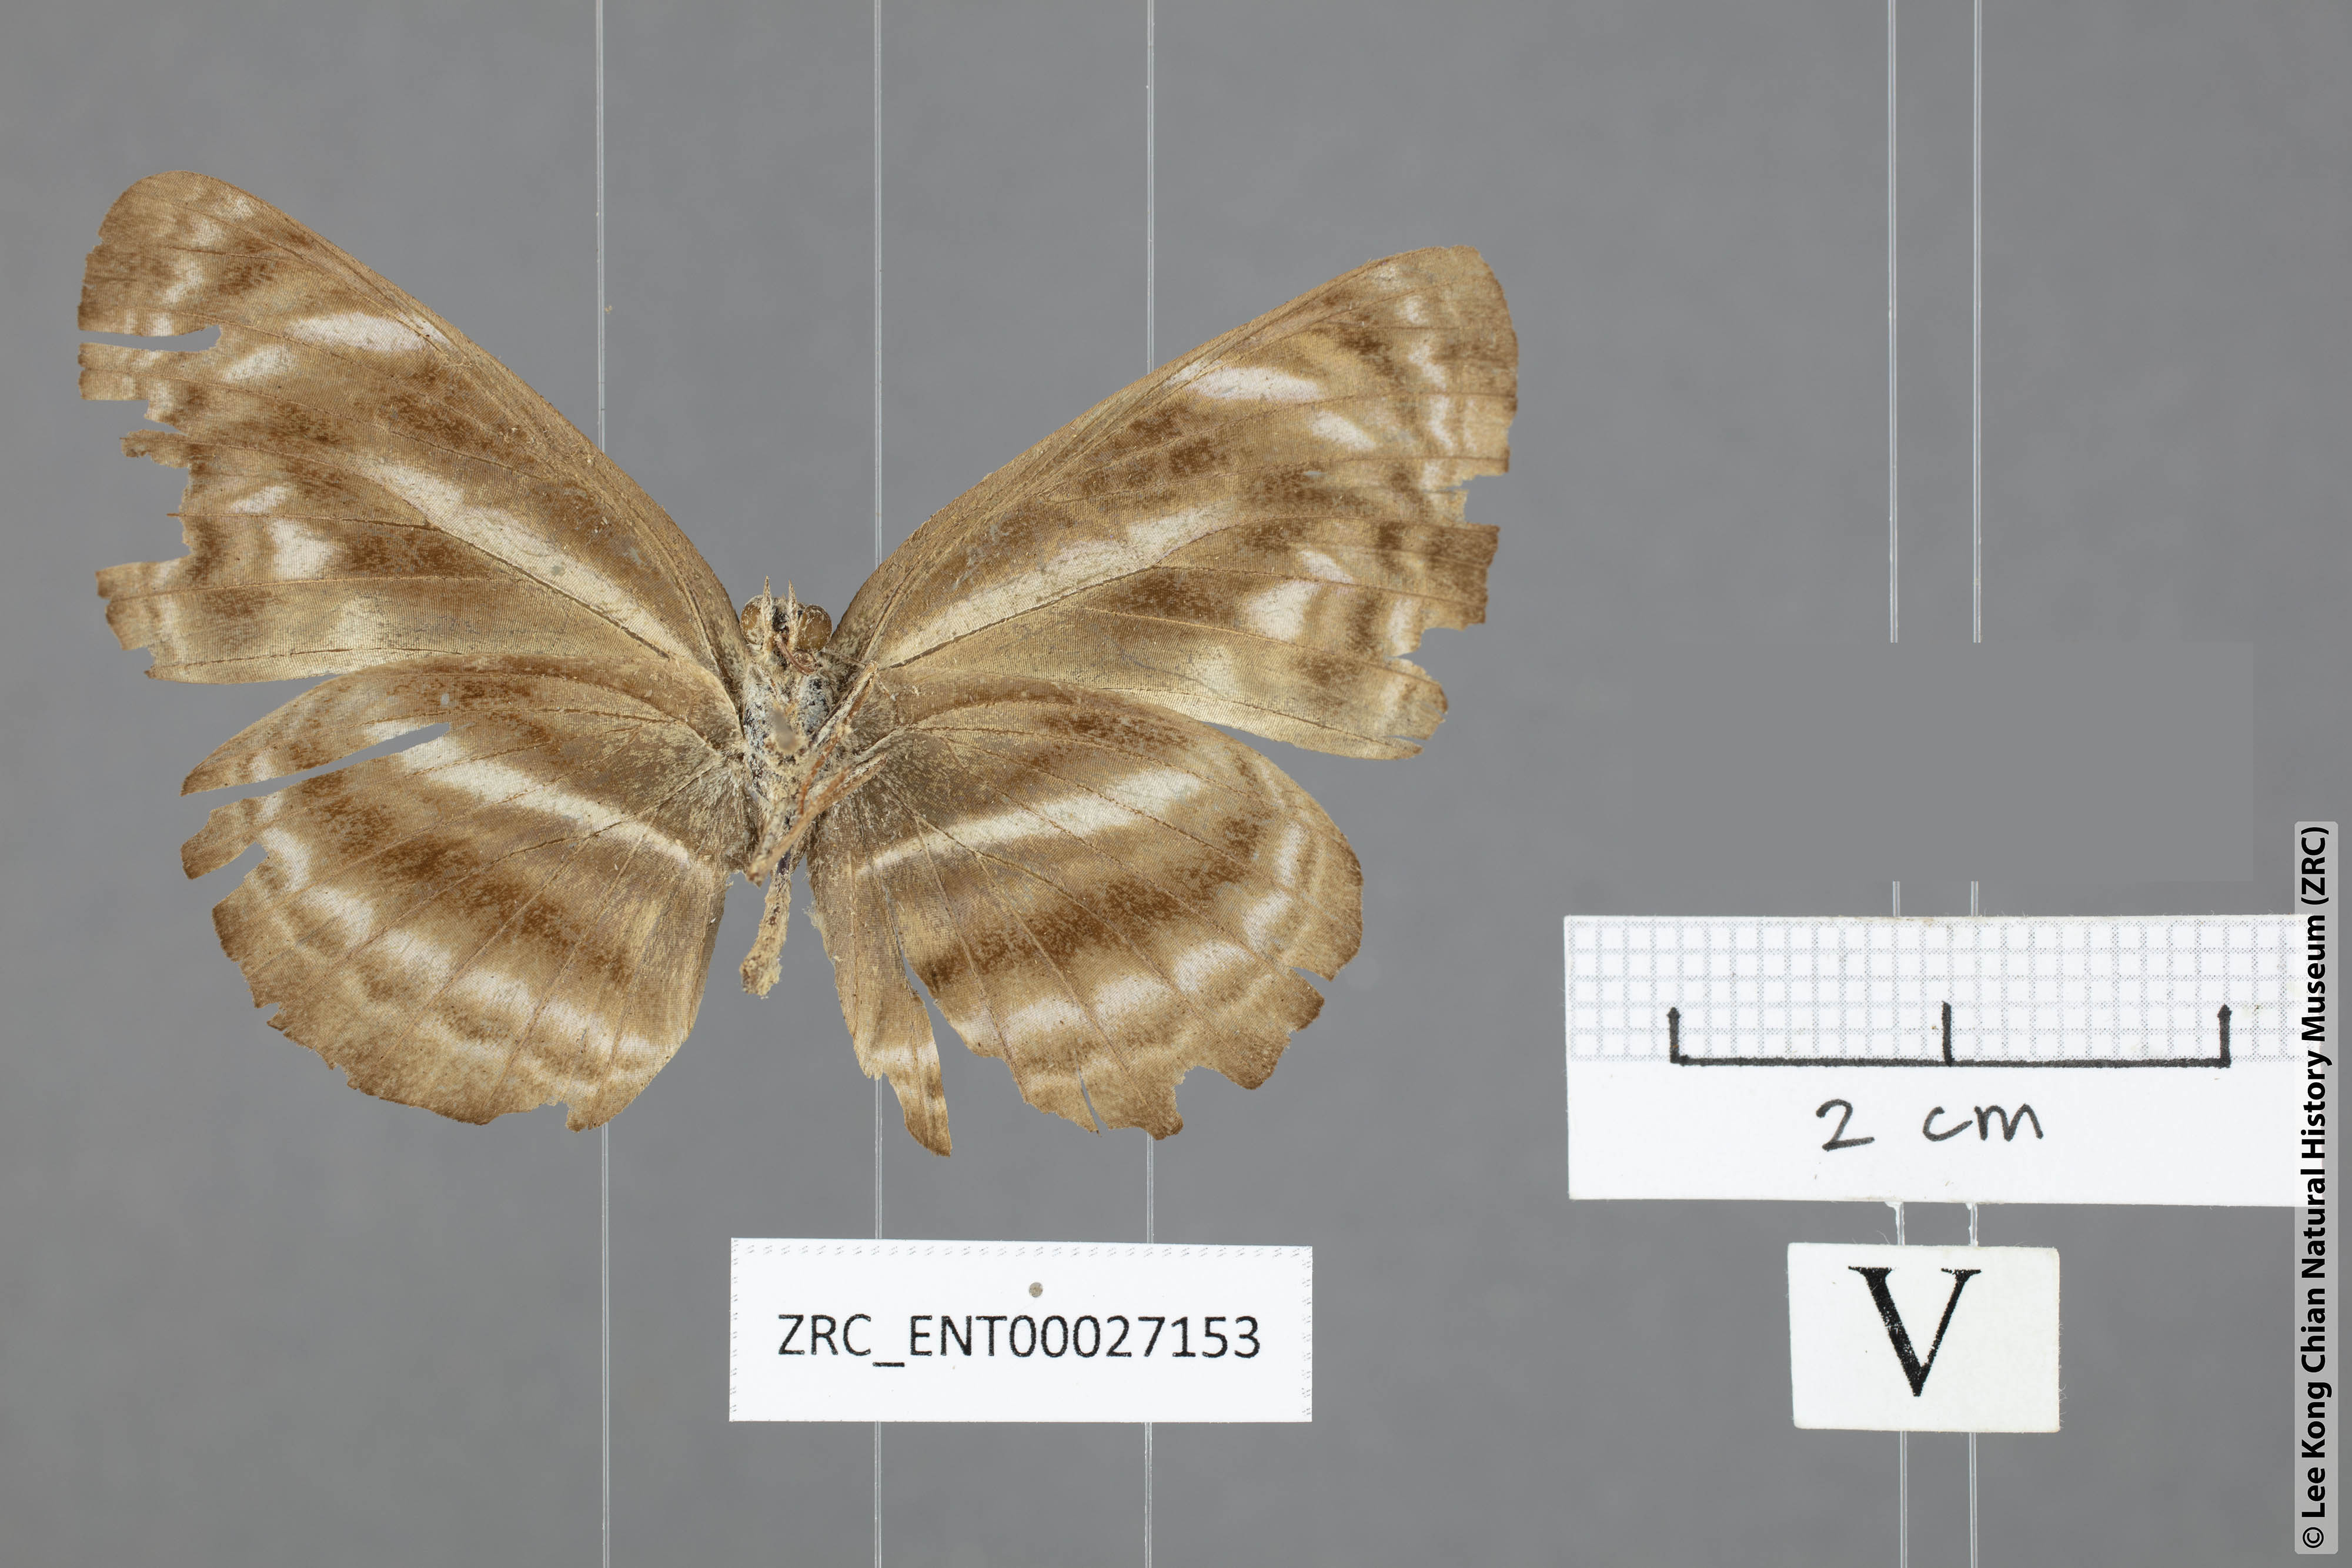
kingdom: Animalia
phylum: Arthropoda
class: Insecta
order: Lepidoptera
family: Nymphalidae
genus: Neptis
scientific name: Neptis ilira
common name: Dark dingy sailor
